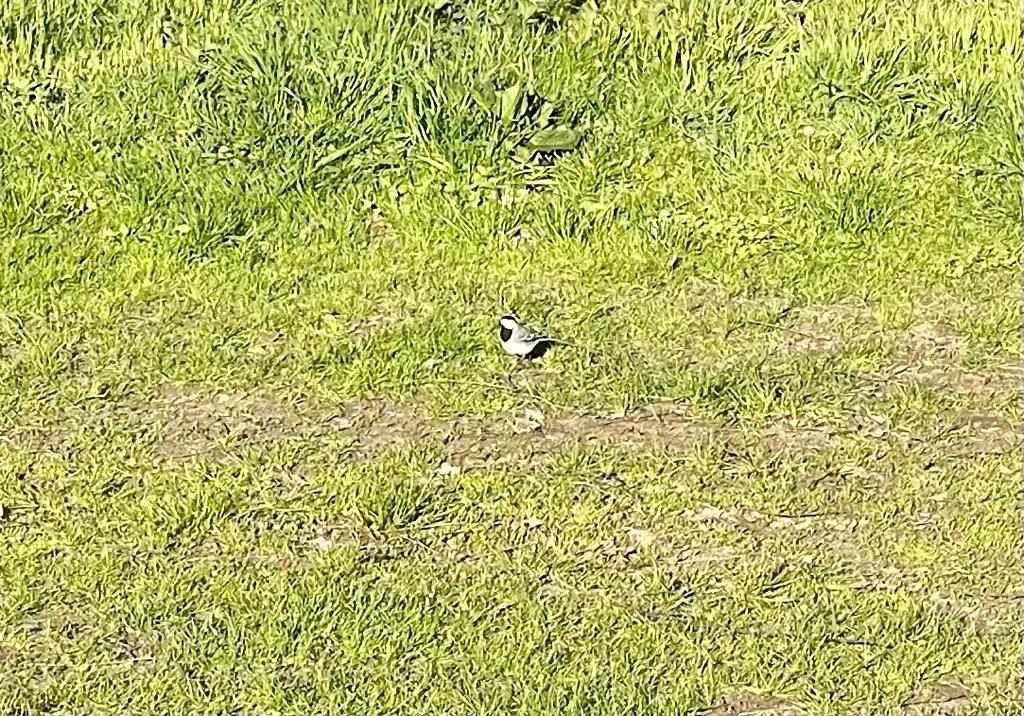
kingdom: Animalia
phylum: Chordata
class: Aves
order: Passeriformes
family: Motacillidae
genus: Motacilla
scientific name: Motacilla alba
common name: Hvid vipstjert
